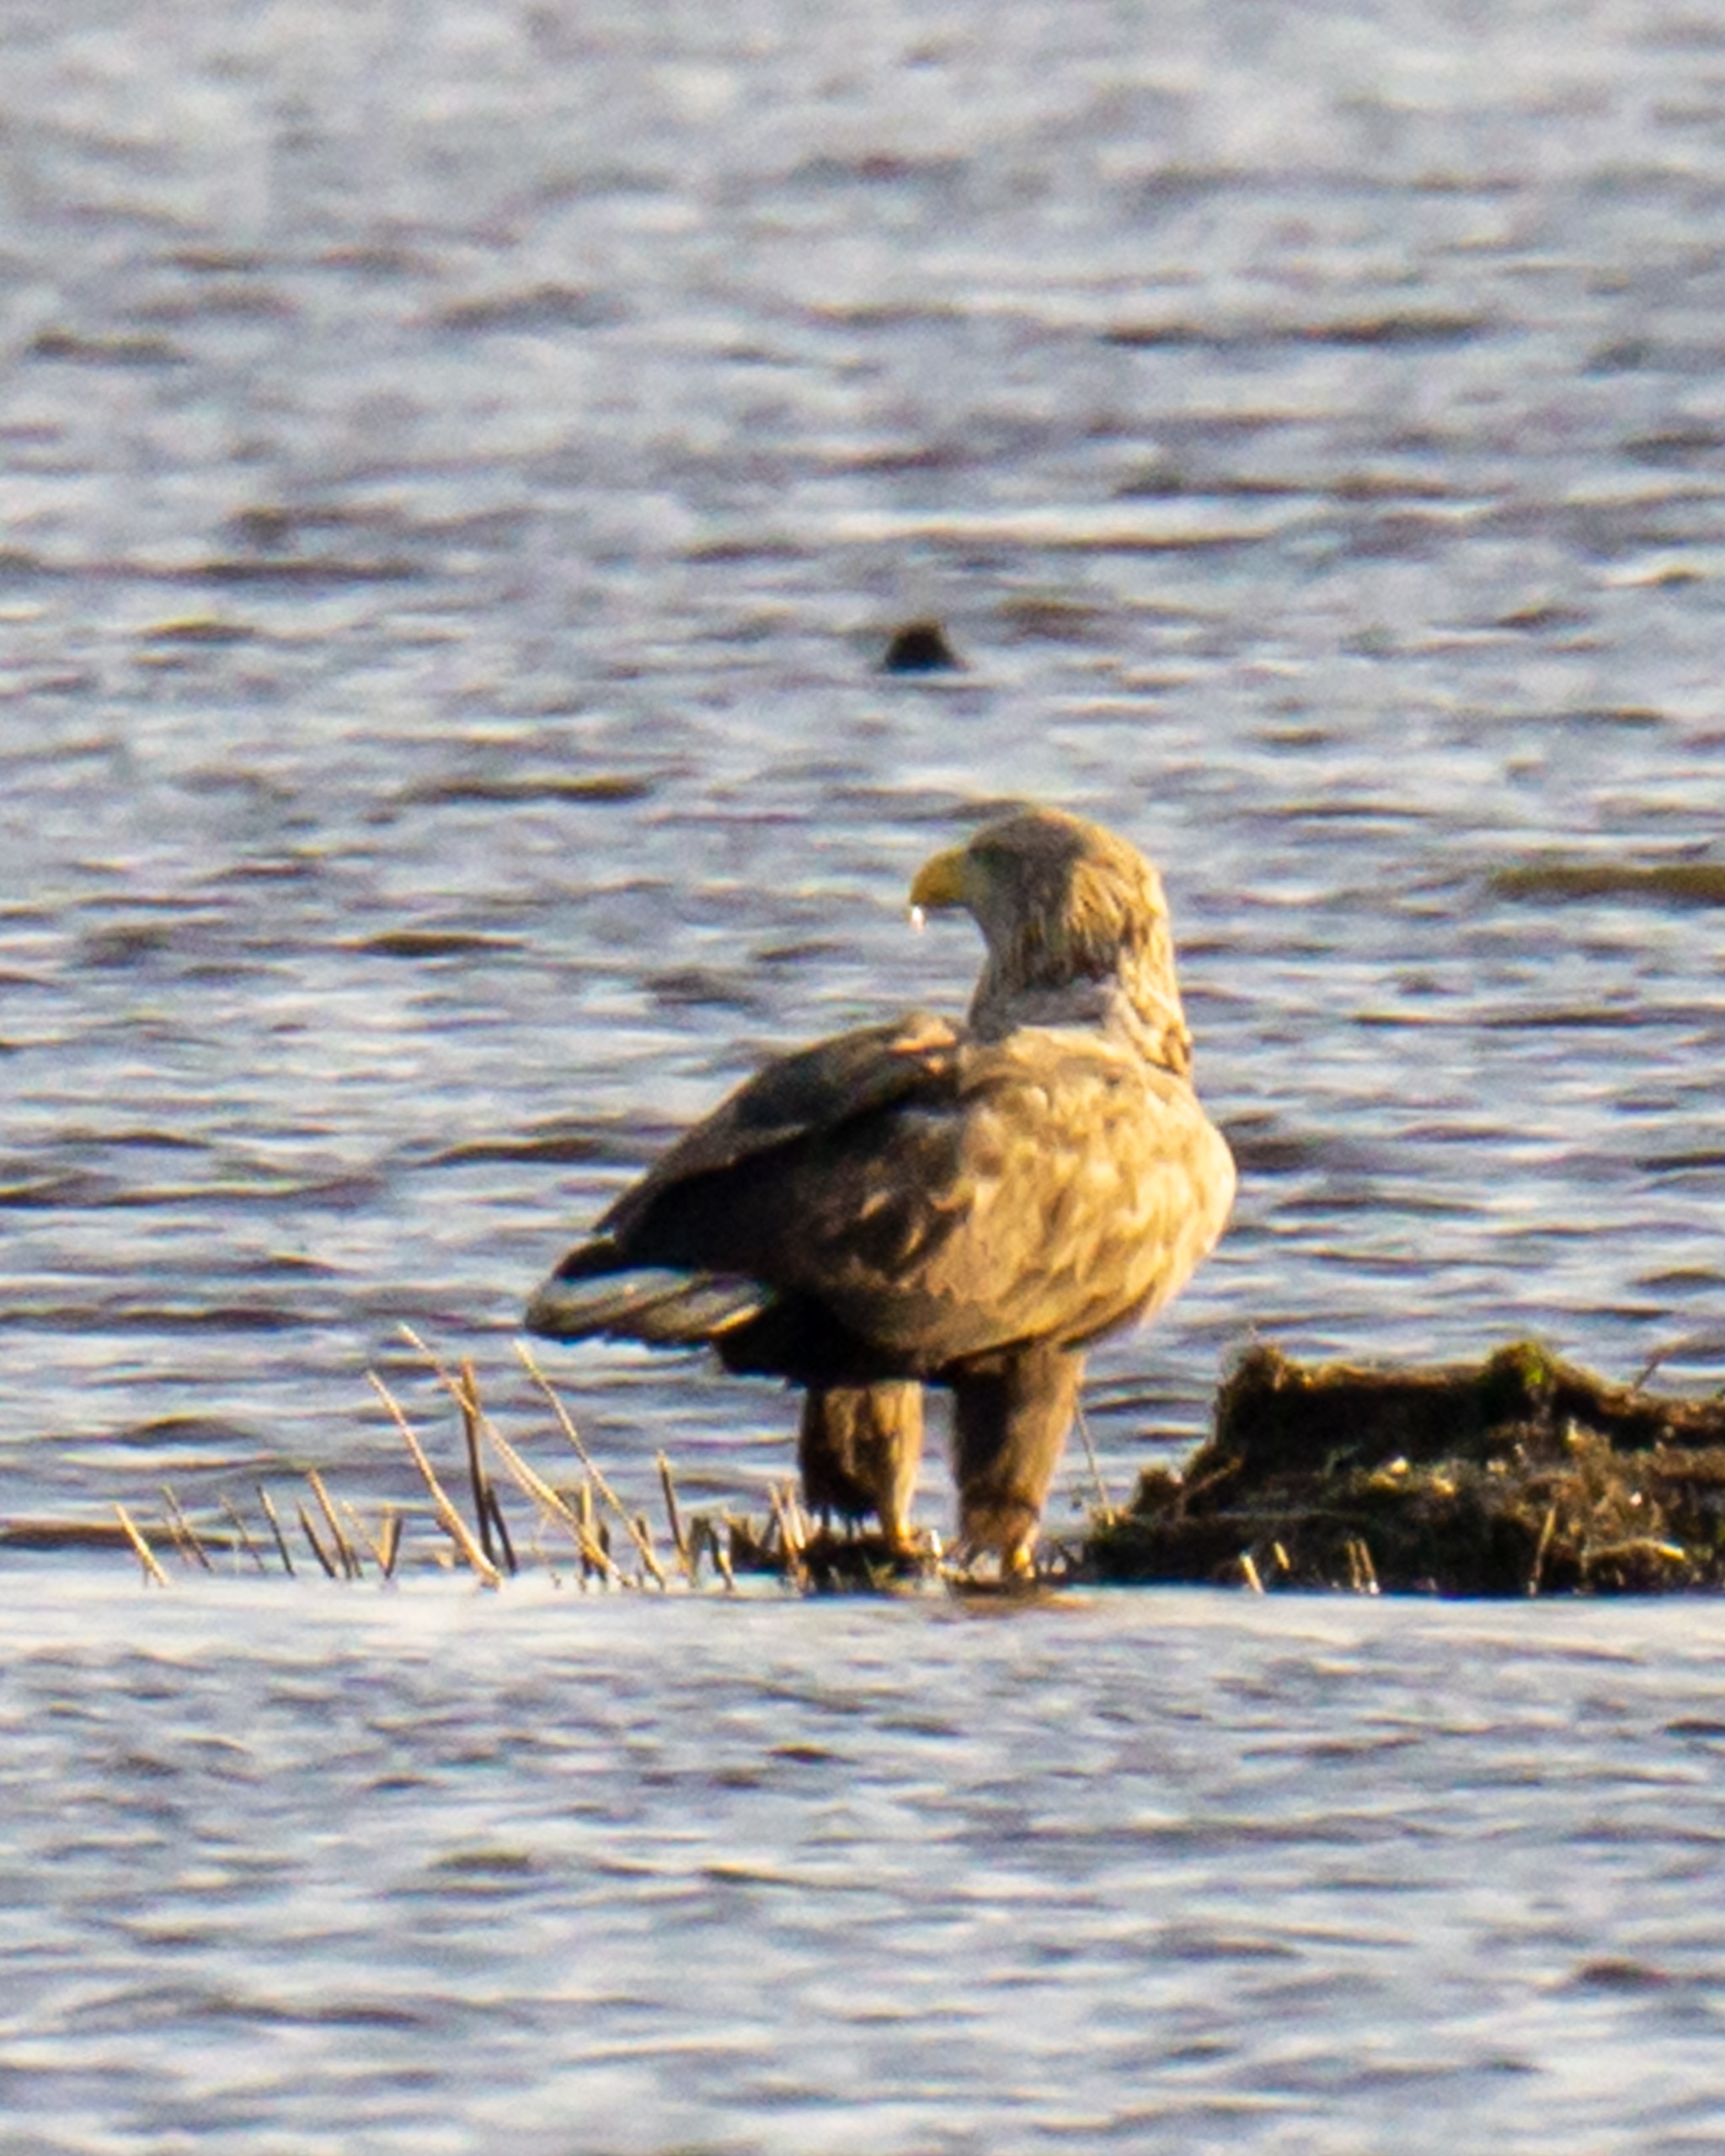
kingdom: Animalia
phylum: Chordata
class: Aves
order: Accipitriformes
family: Accipitridae
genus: Haliaeetus
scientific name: Haliaeetus albicilla
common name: Havørn
